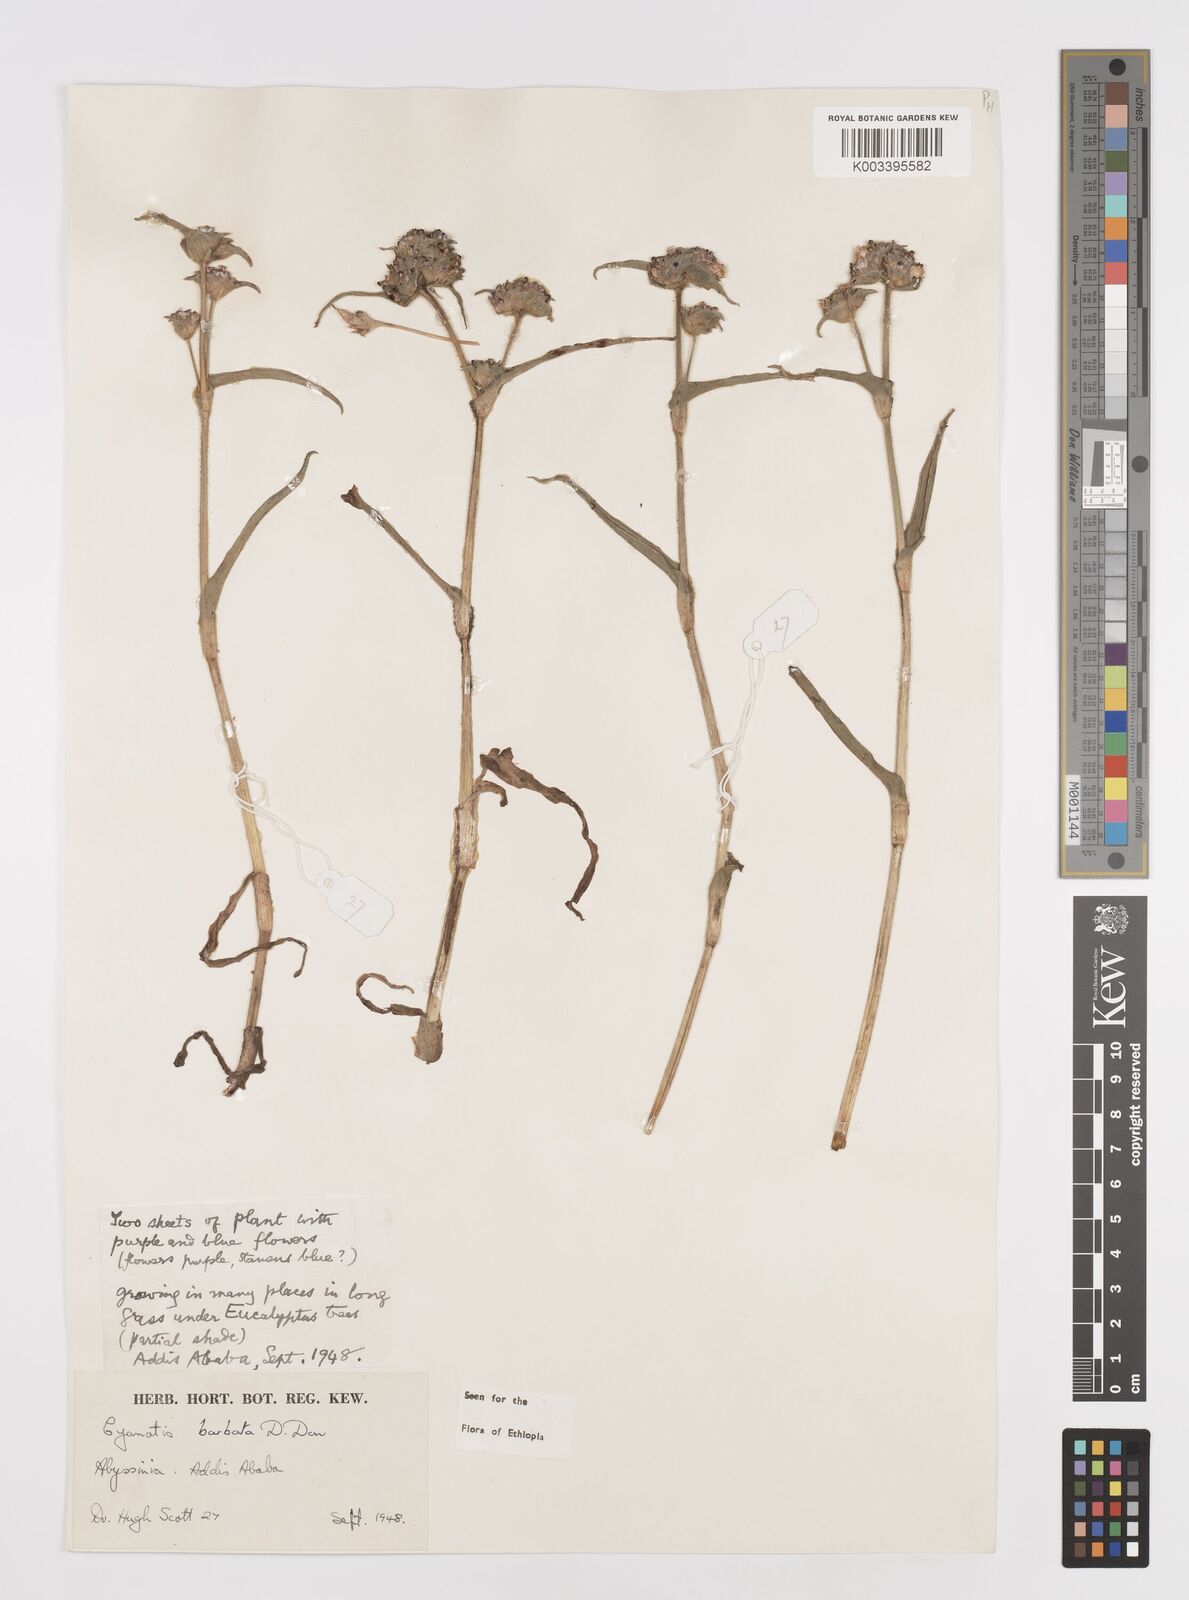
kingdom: Plantae
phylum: Tracheophyta
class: Liliopsida
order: Commelinales
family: Commelinaceae
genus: Cyanotis
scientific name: Cyanotis vaga
